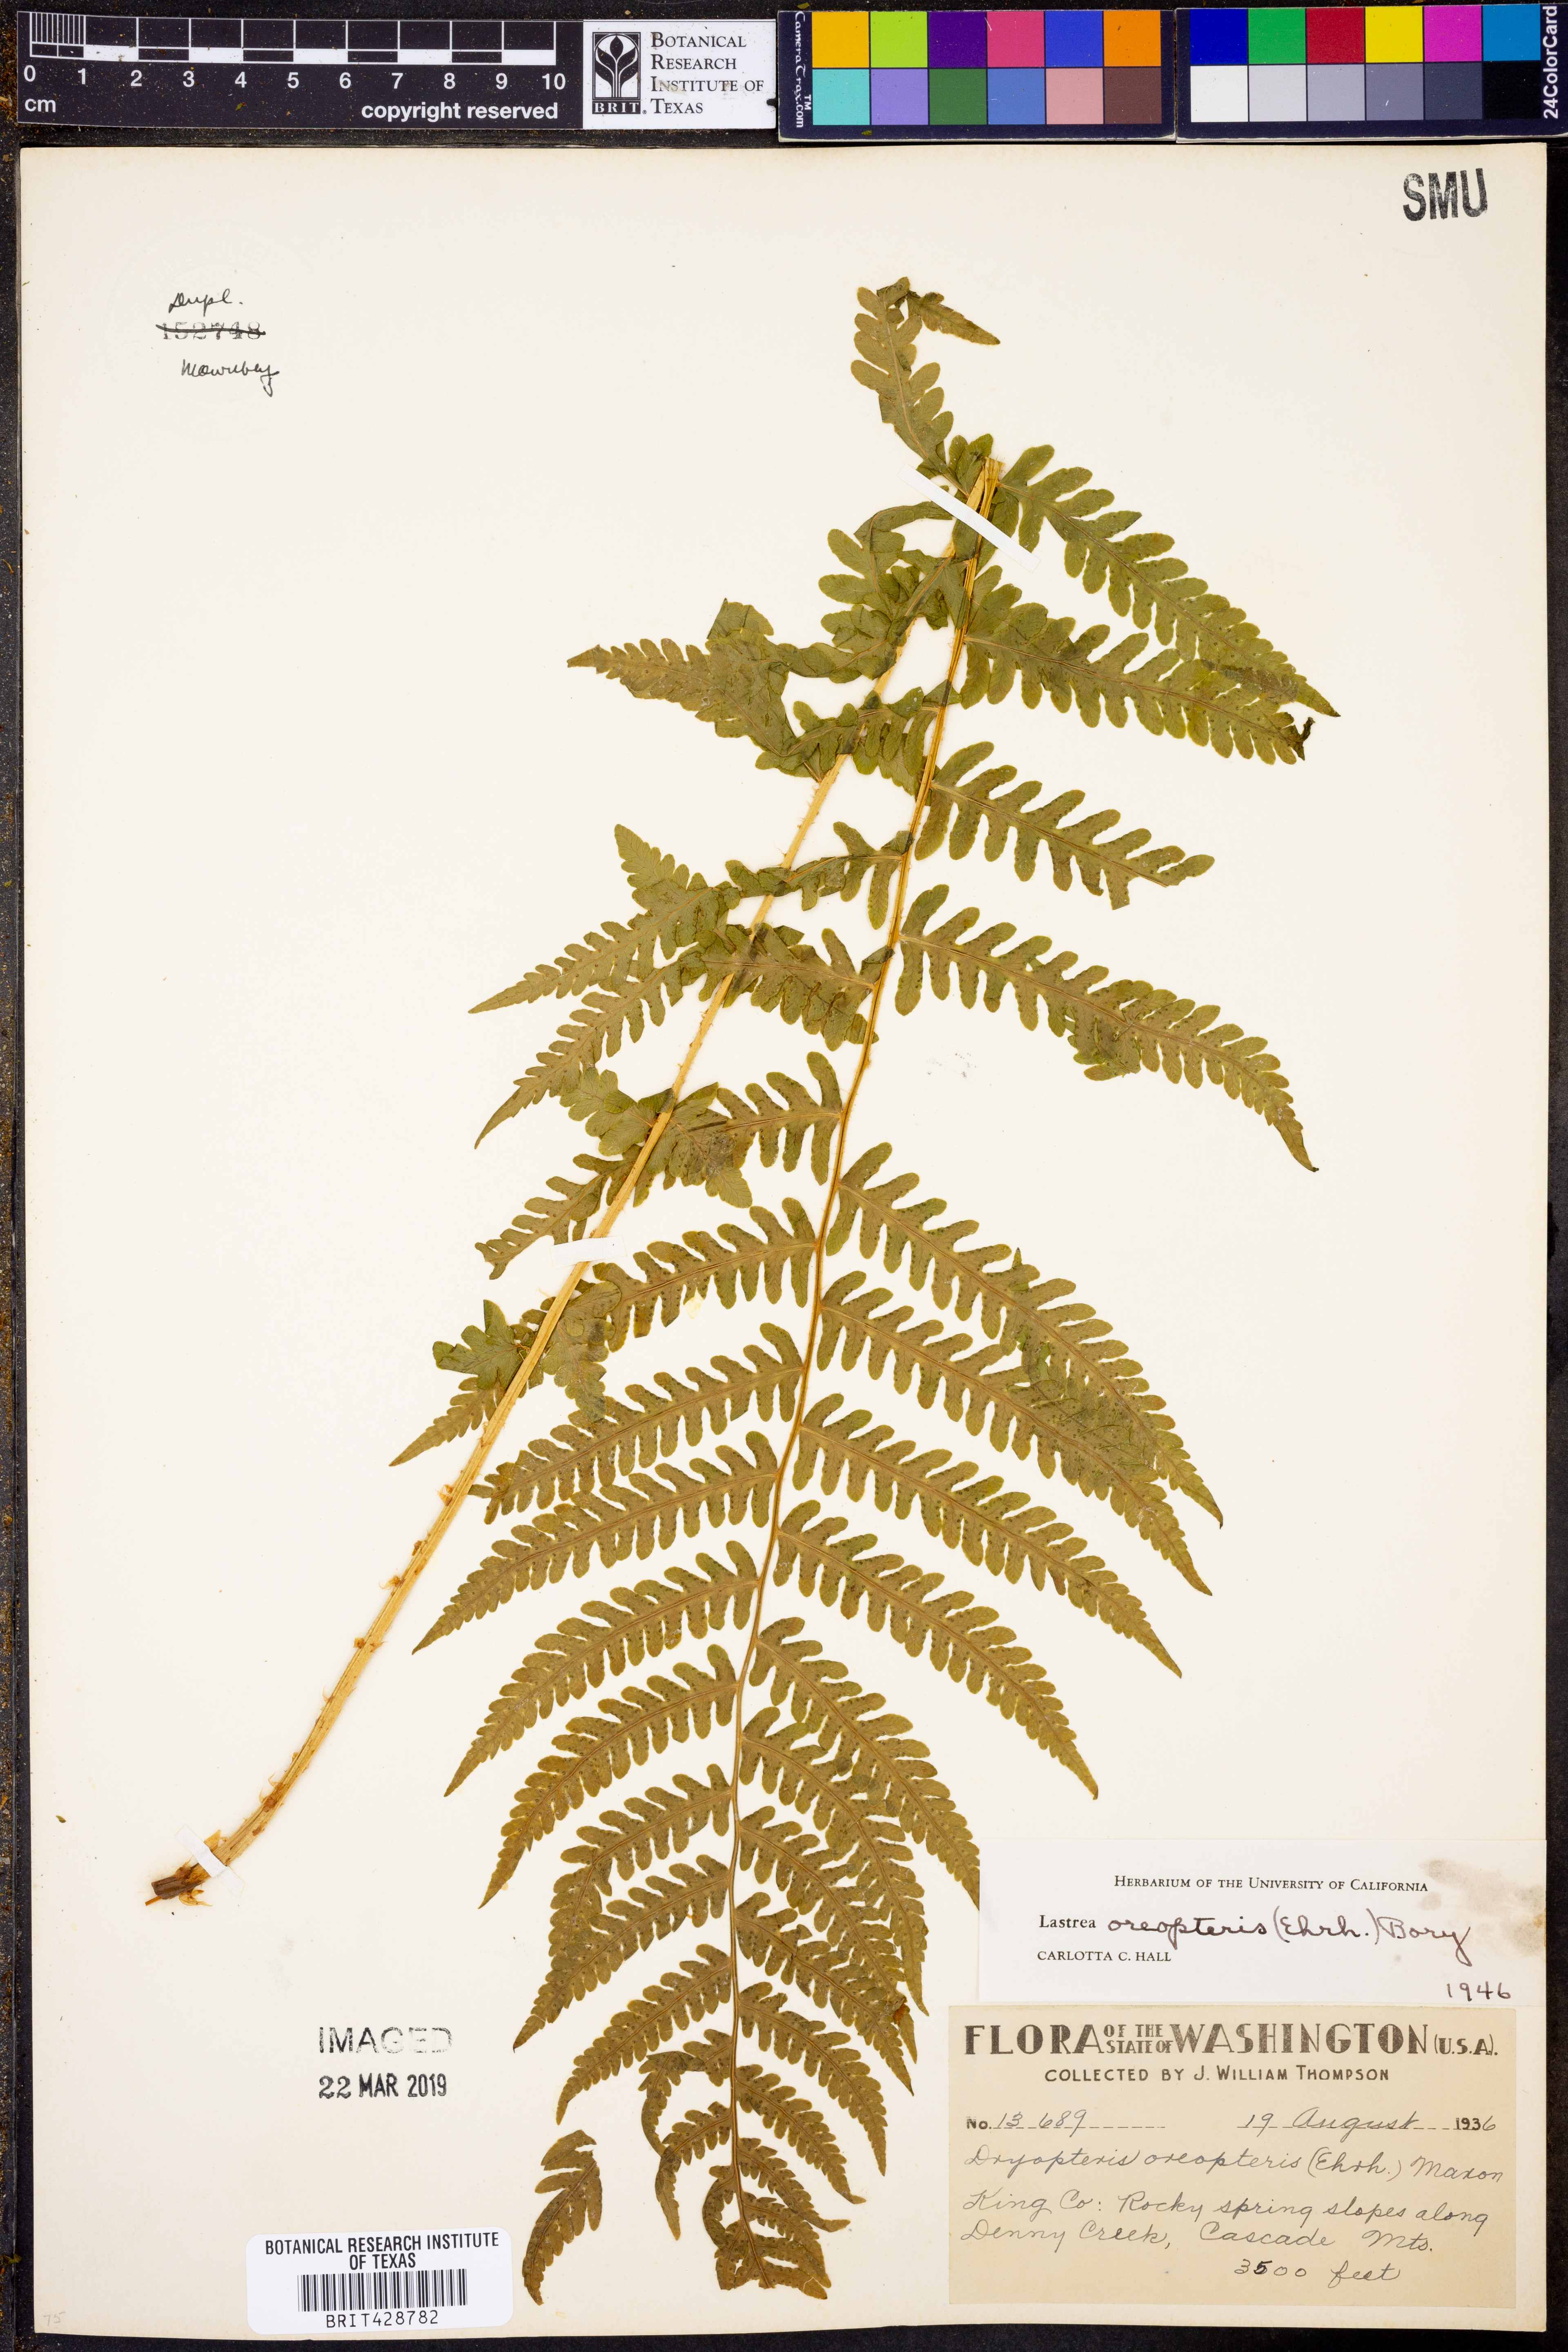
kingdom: Plantae
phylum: Tracheophyta
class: Polypodiopsida
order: Polypodiales
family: Thelypteridaceae
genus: Oreopteris
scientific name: Oreopteris limbosperma
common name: Lemon-scented fern
